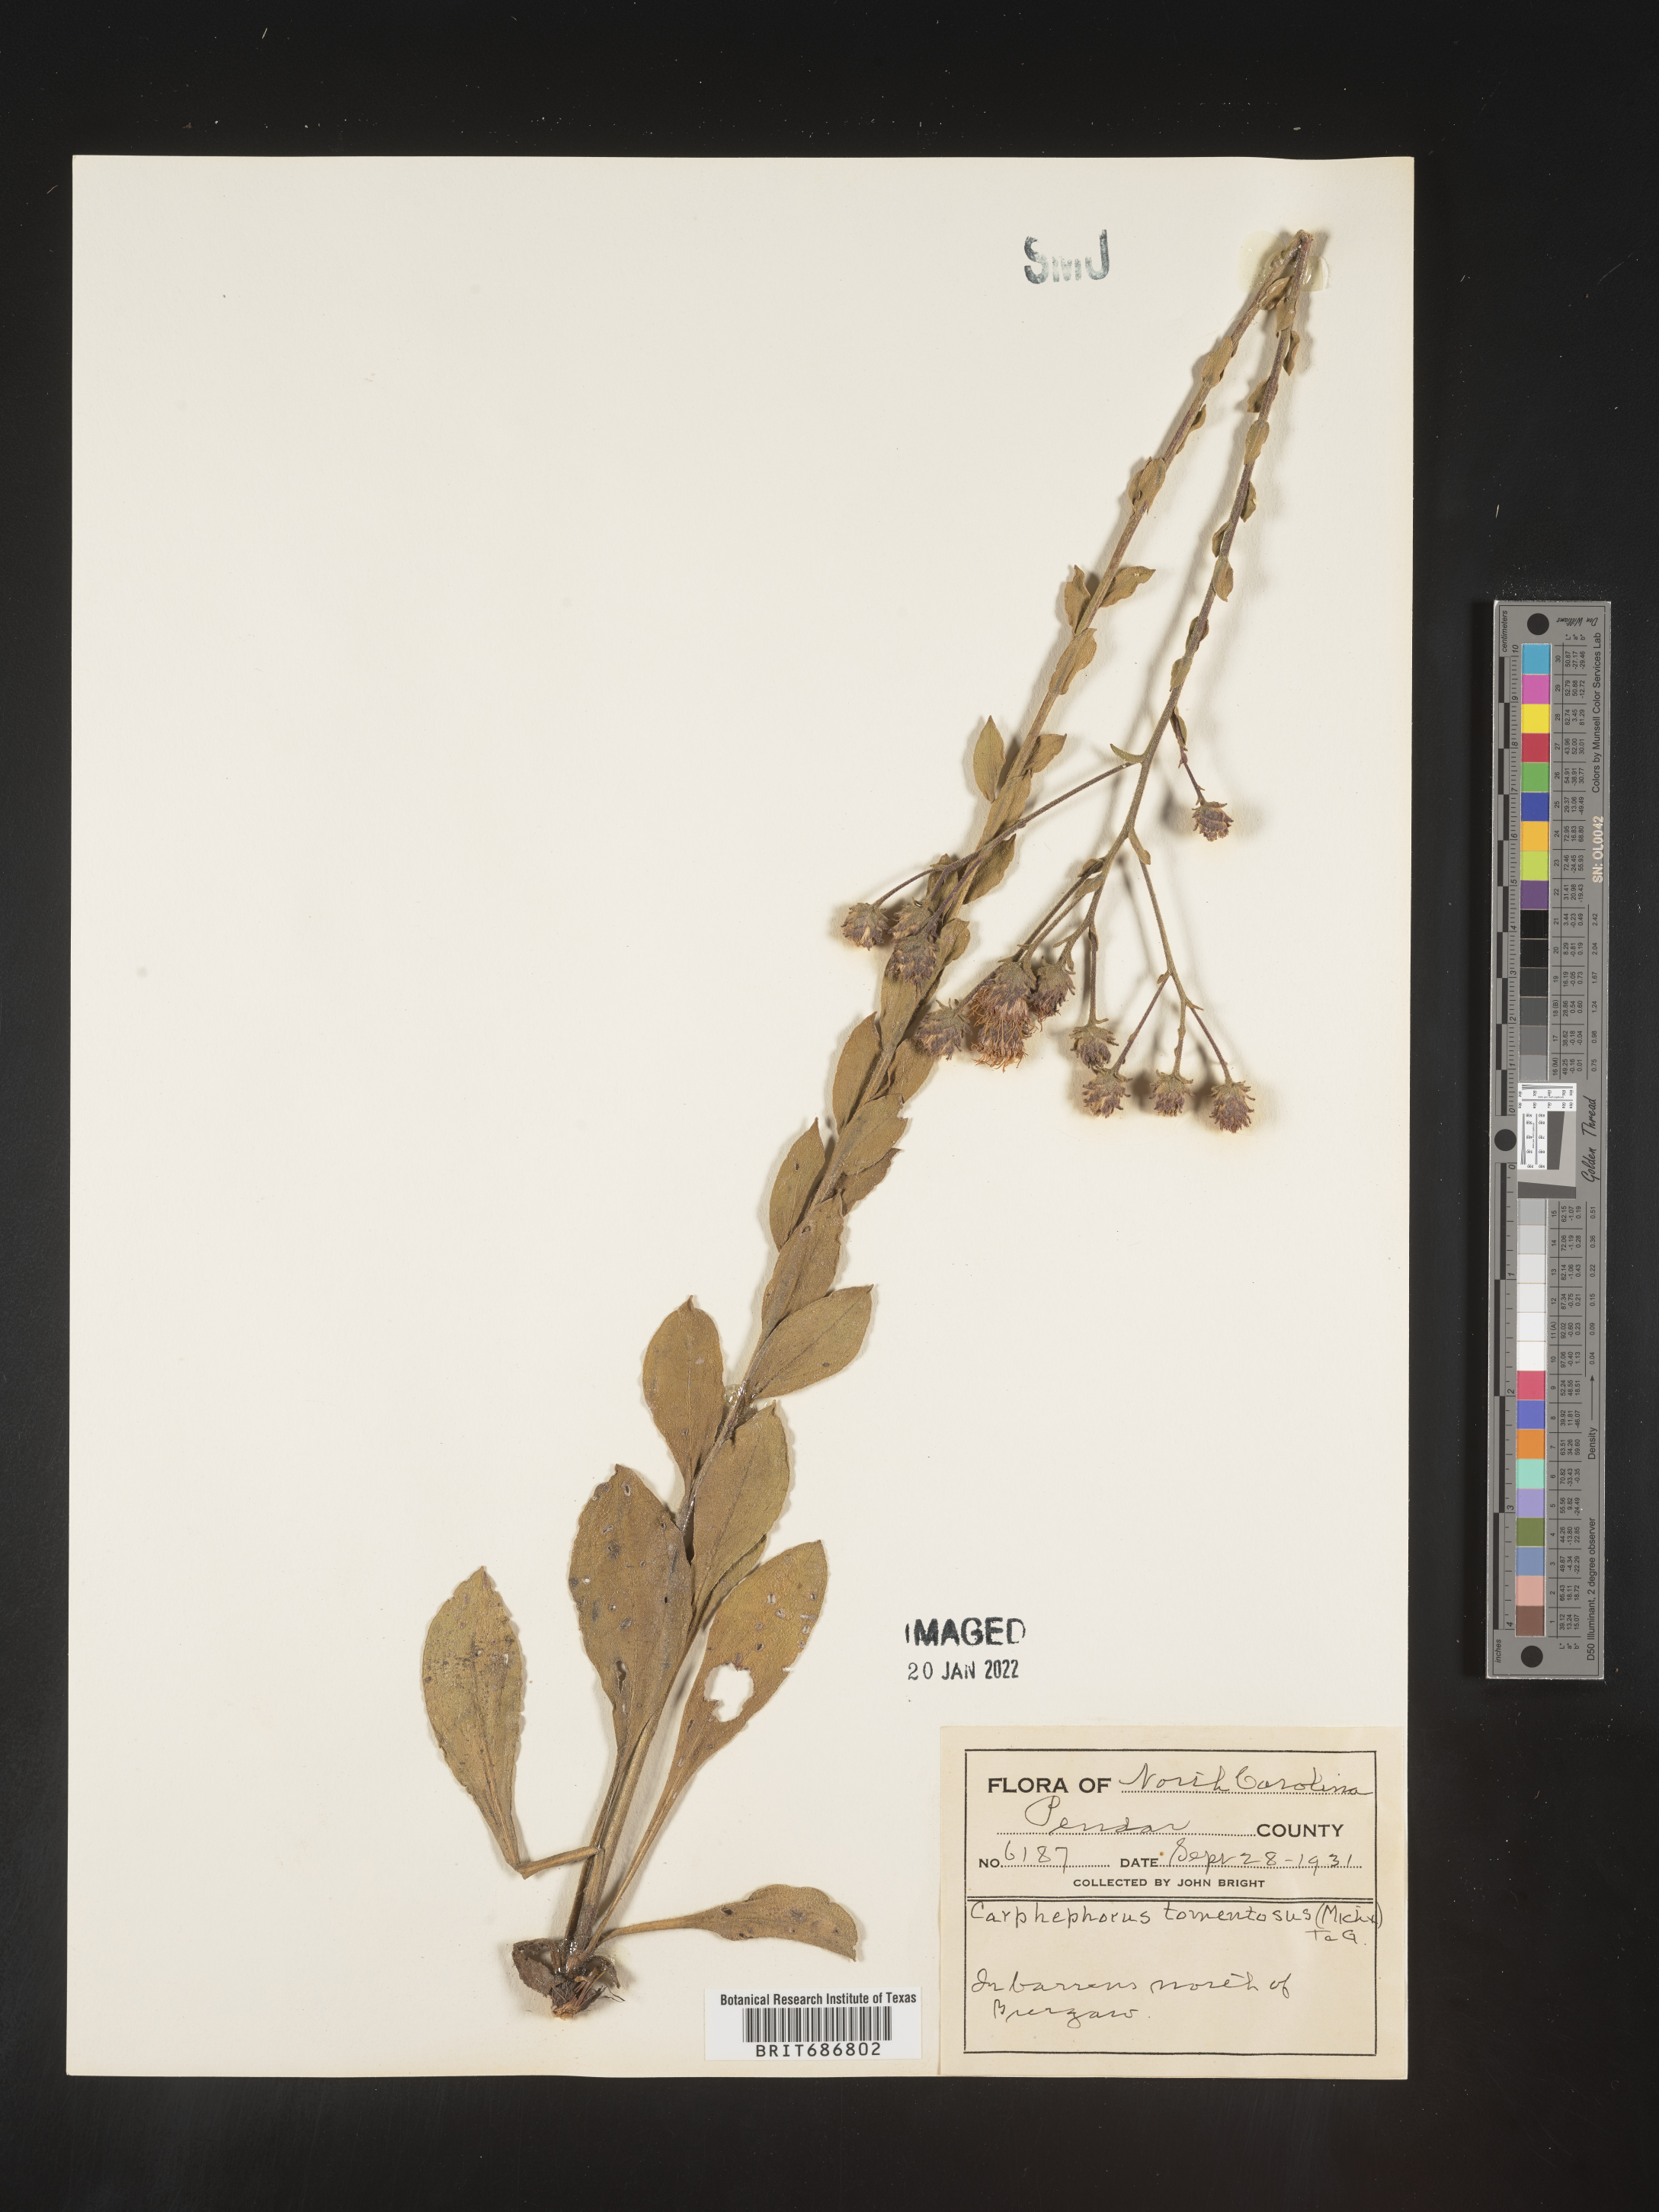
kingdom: Plantae
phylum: Tracheophyta
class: Magnoliopsida
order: Asterales
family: Asteraceae
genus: Carphephorus
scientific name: Carphephorus tomentosus
